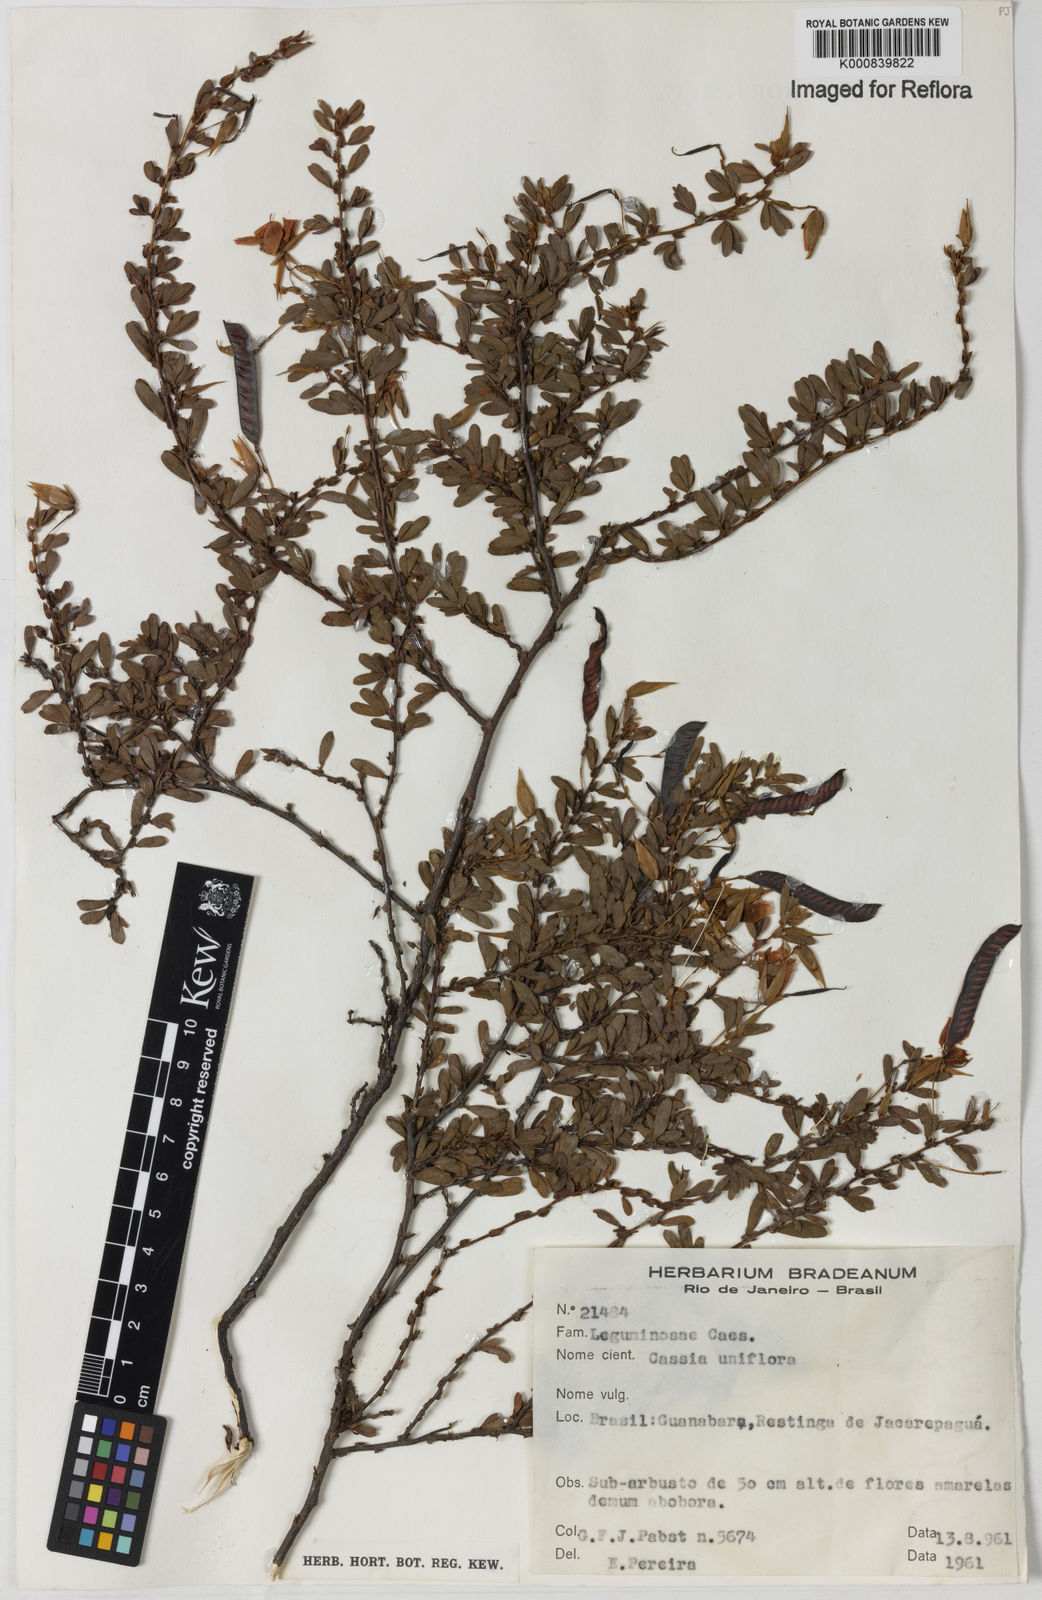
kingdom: Plantae
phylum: Tracheophyta
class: Magnoliopsida
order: Fabales
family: Fabaceae
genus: Chamaecrista
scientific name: Chamaecrista ramosa
